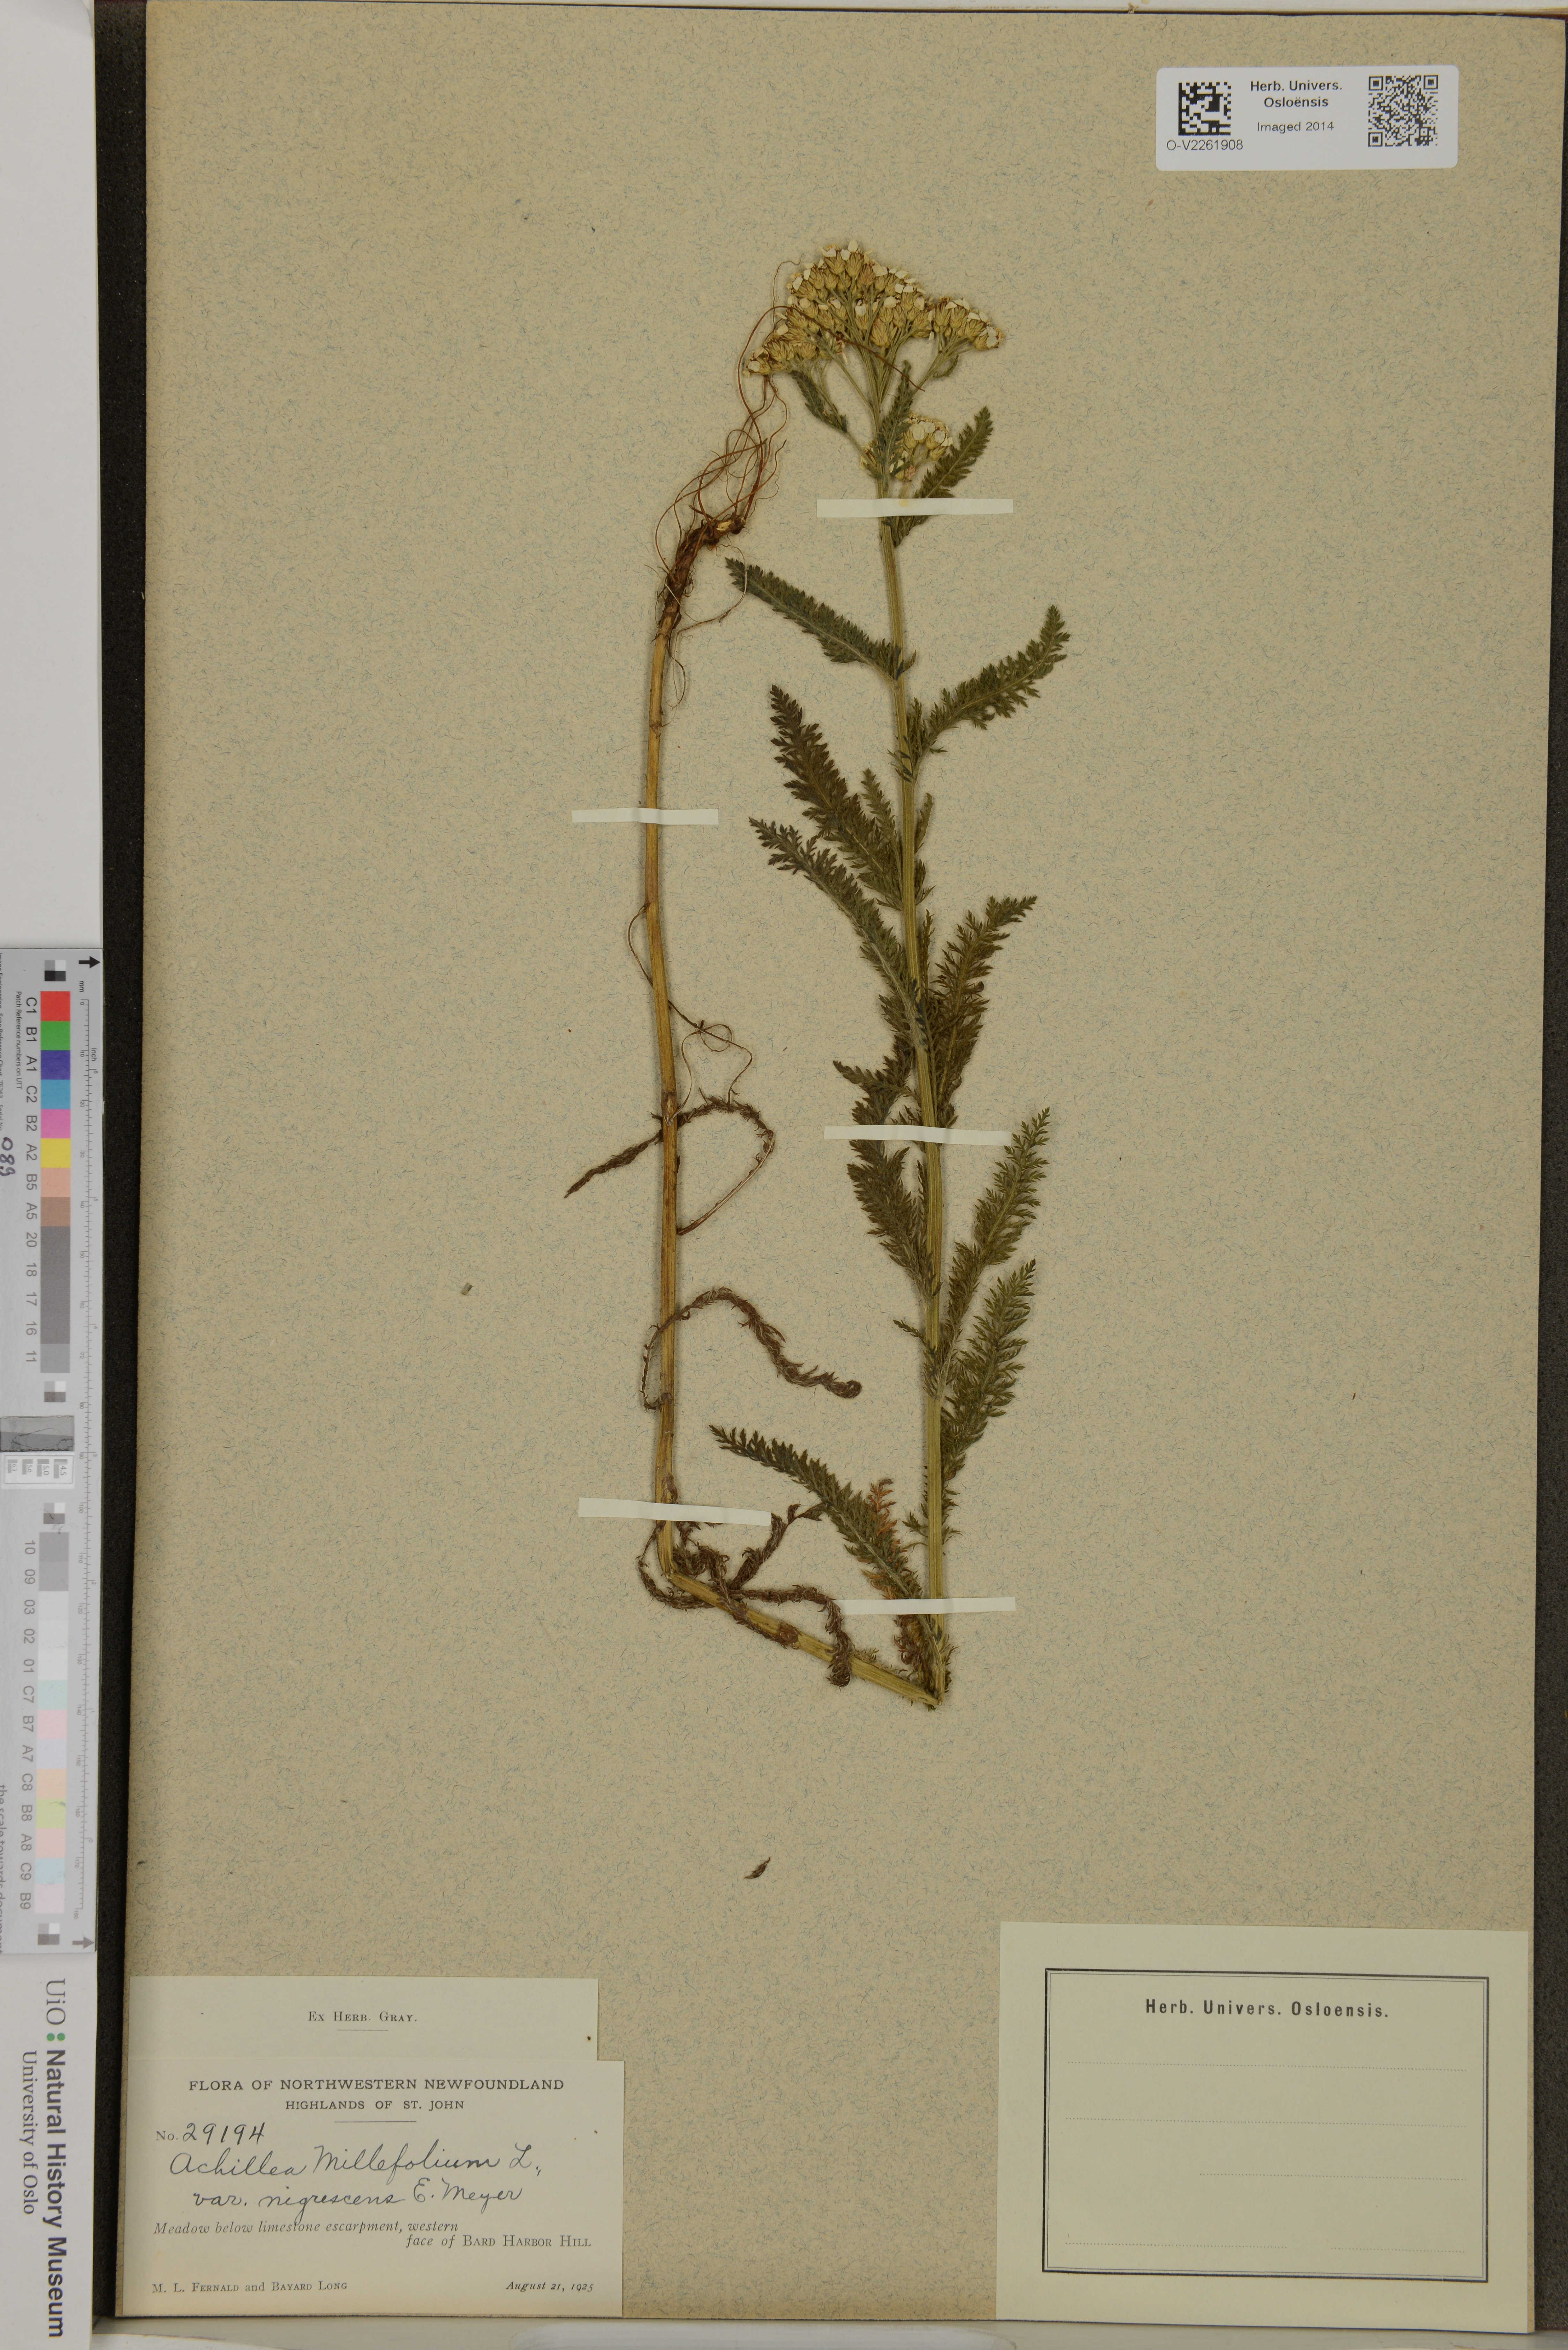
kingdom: Plantae
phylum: Tracheophyta
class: Magnoliopsida
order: Asterales
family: Asteraceae
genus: Achillea
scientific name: Achillea millefolium
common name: Yarrow
